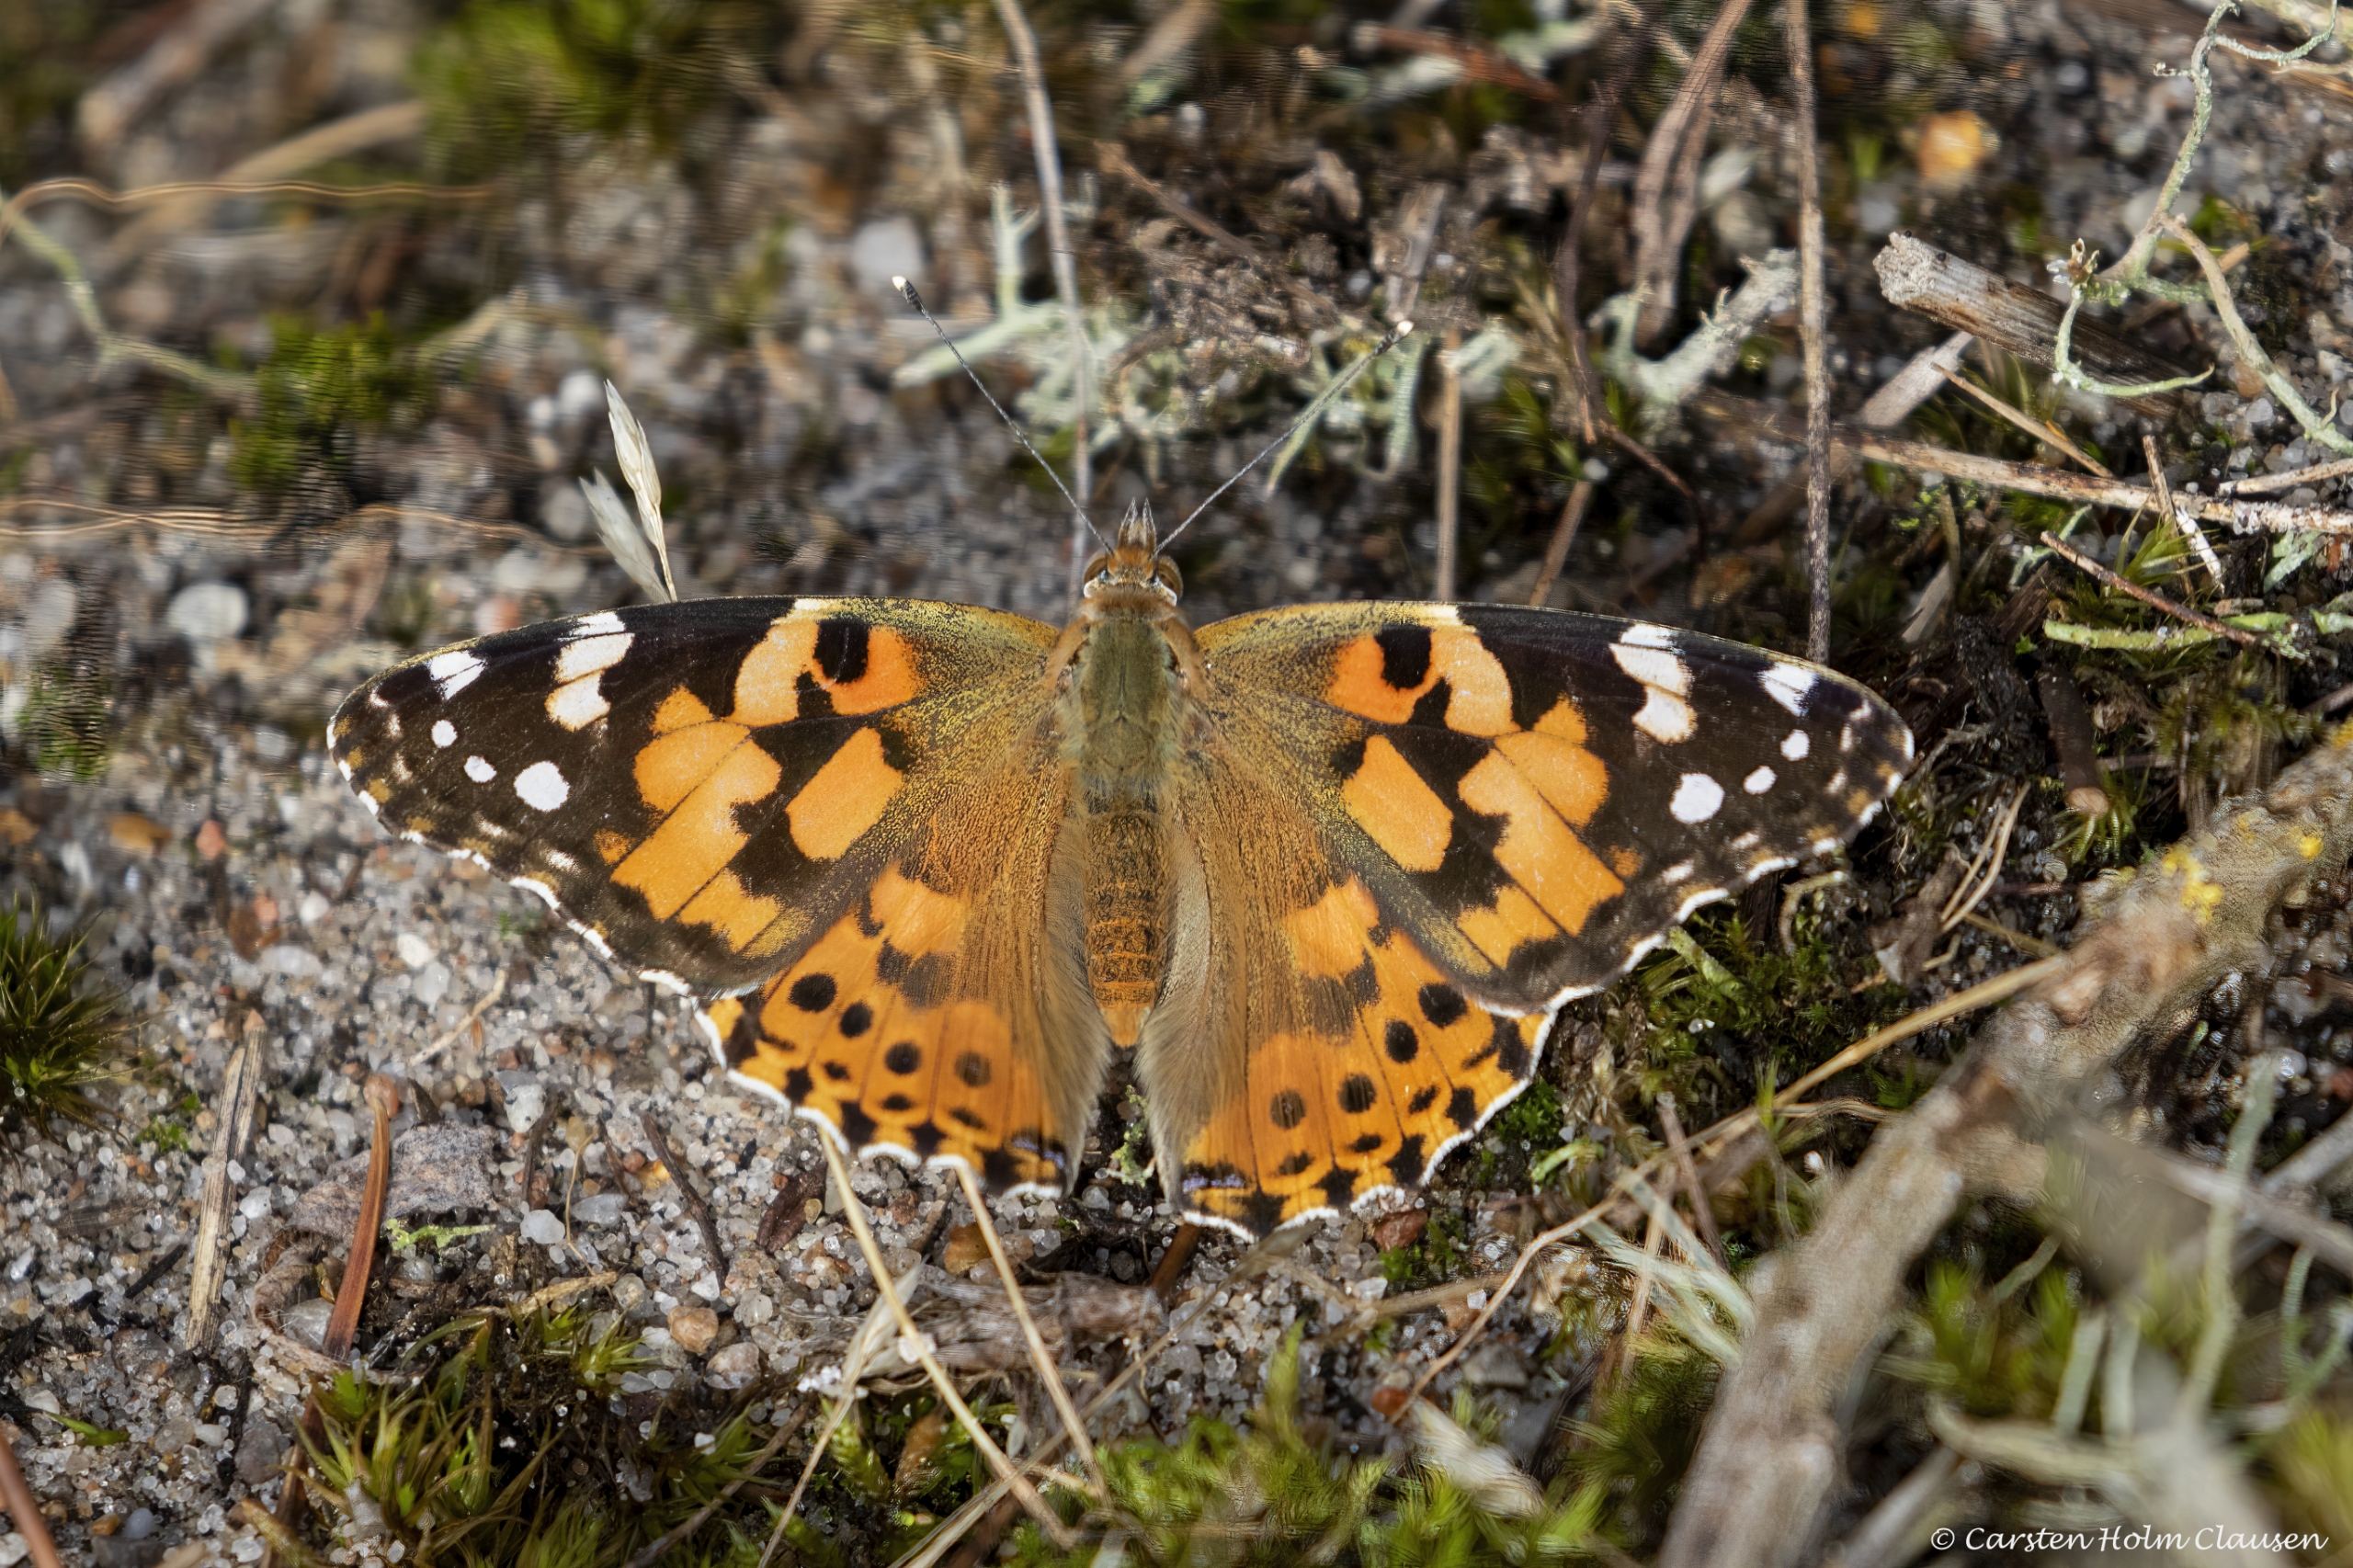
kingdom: Animalia
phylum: Arthropoda
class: Insecta
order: Lepidoptera
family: Nymphalidae
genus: Vanessa
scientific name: Vanessa cardui
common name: Tidselsommerfugl
